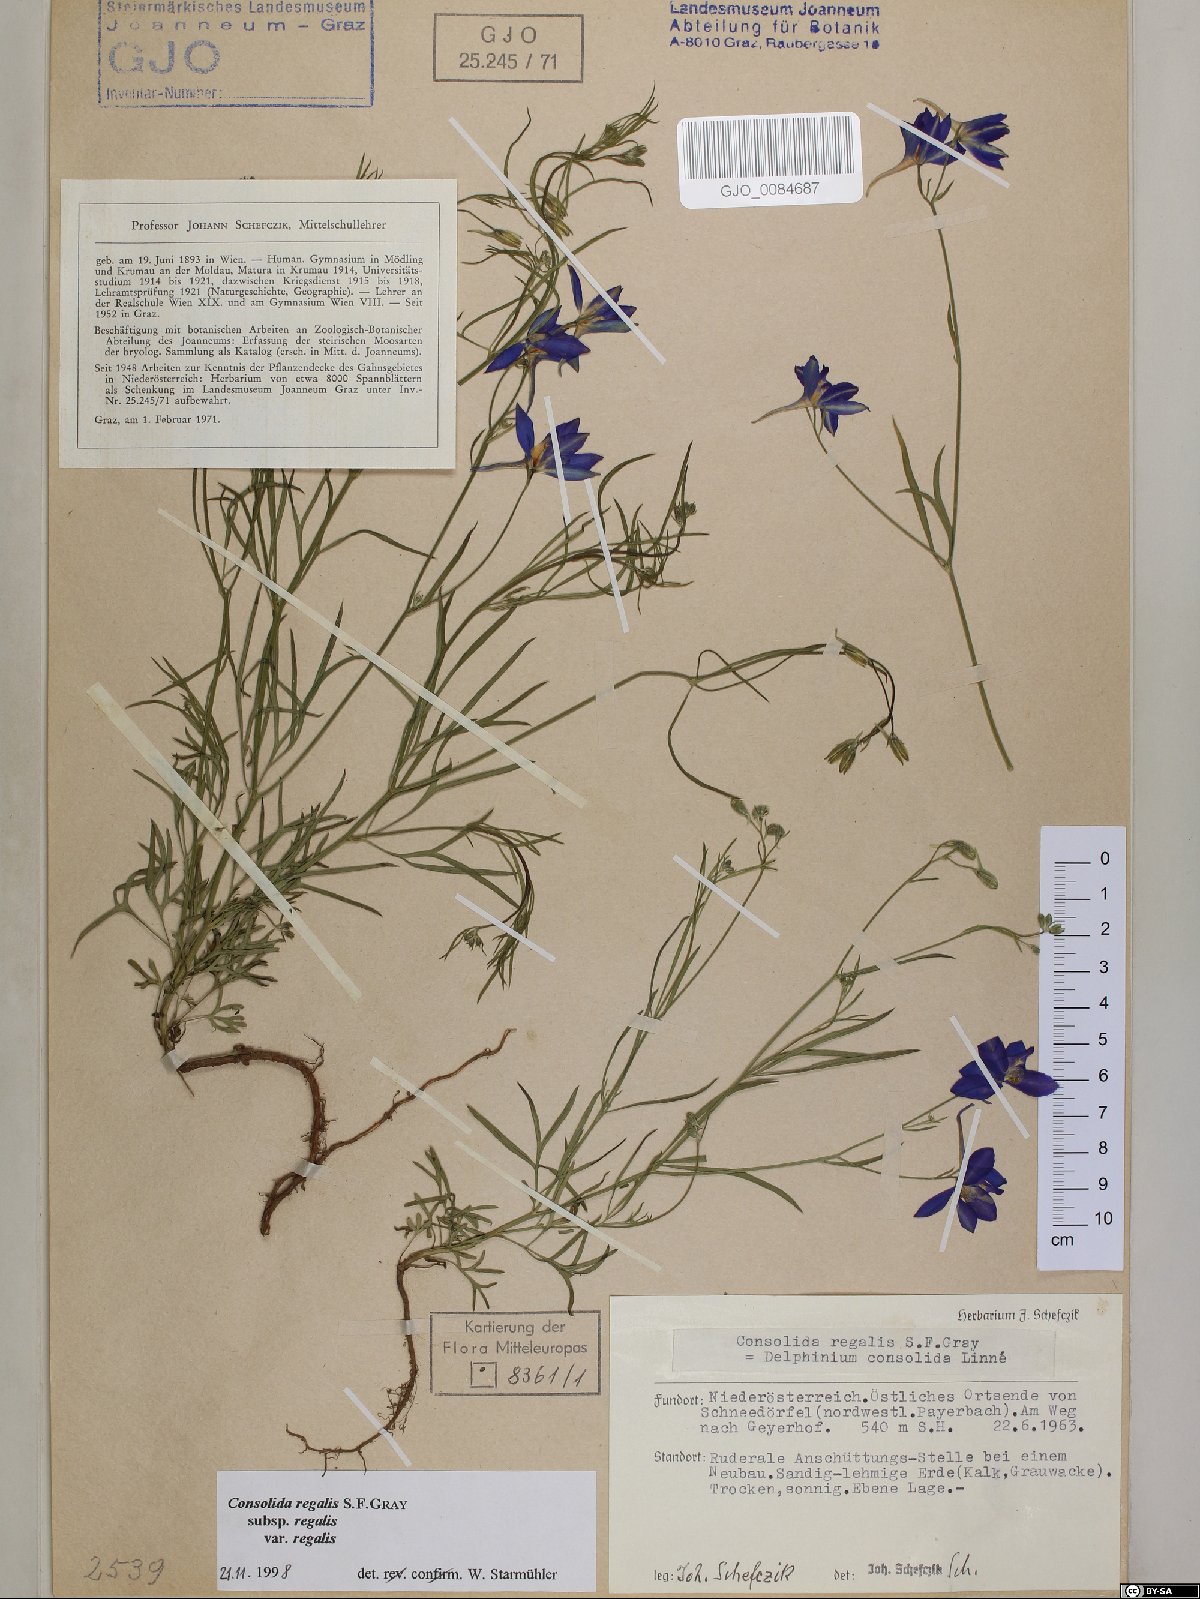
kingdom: Plantae
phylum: Tracheophyta
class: Magnoliopsida
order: Ranunculales
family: Ranunculaceae
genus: Delphinium
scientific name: Delphinium consolida
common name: Branching larkspur
